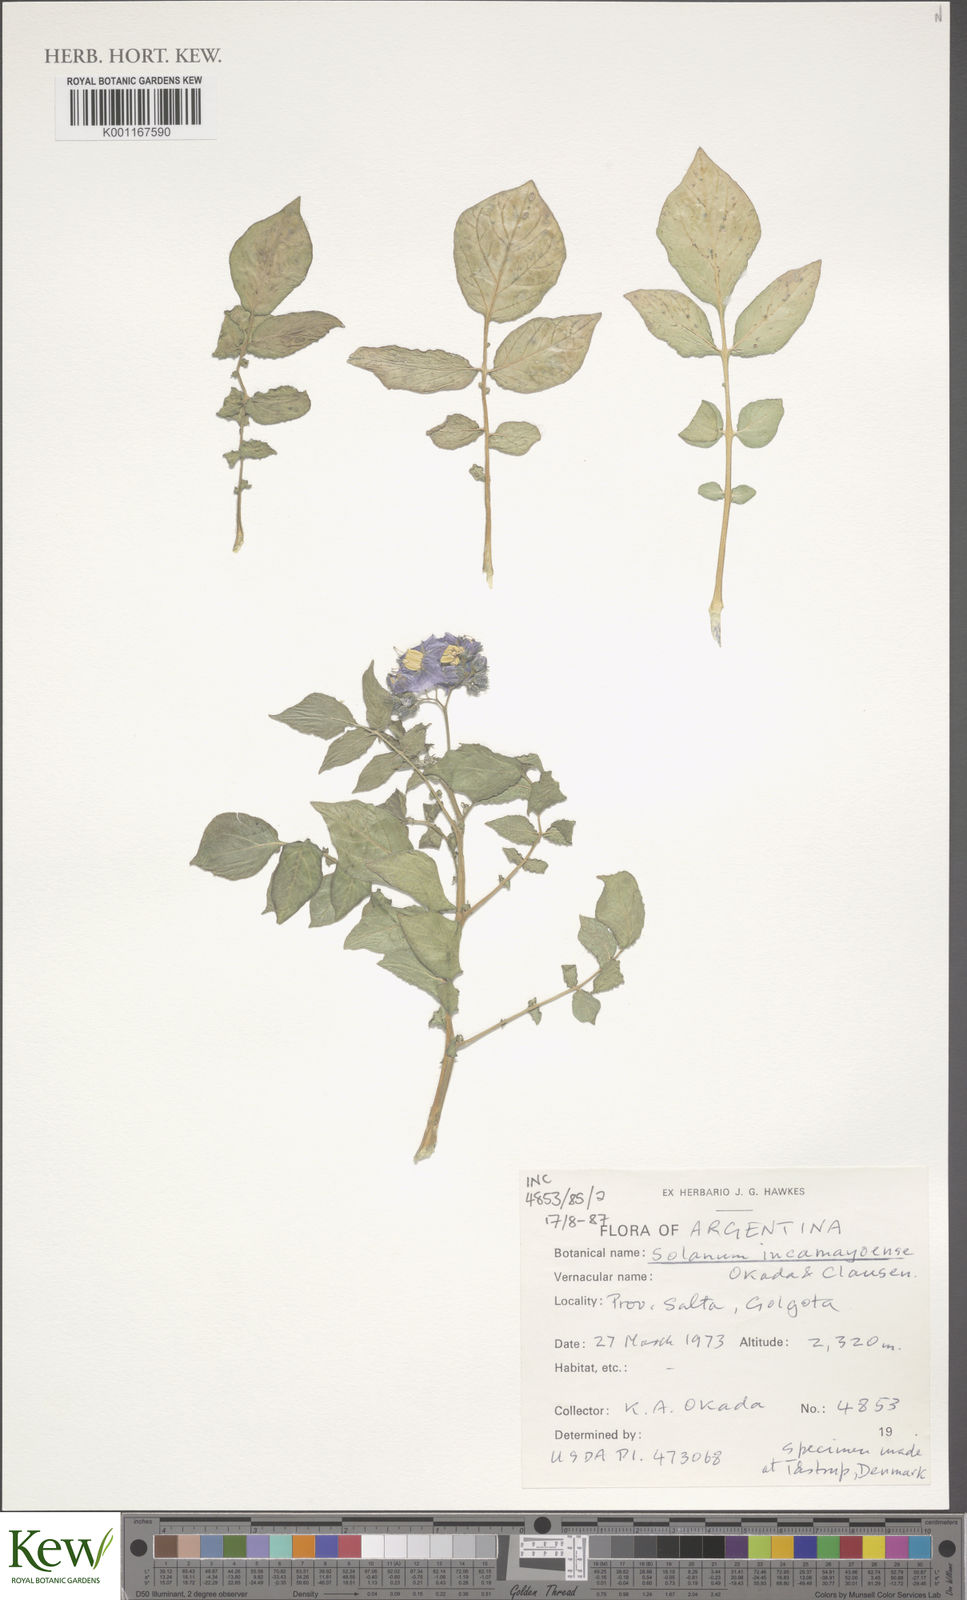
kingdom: Plantae
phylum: Tracheophyta
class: Magnoliopsida
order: Solanales
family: Solanaceae
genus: Solanum
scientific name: Solanum brevicaule
